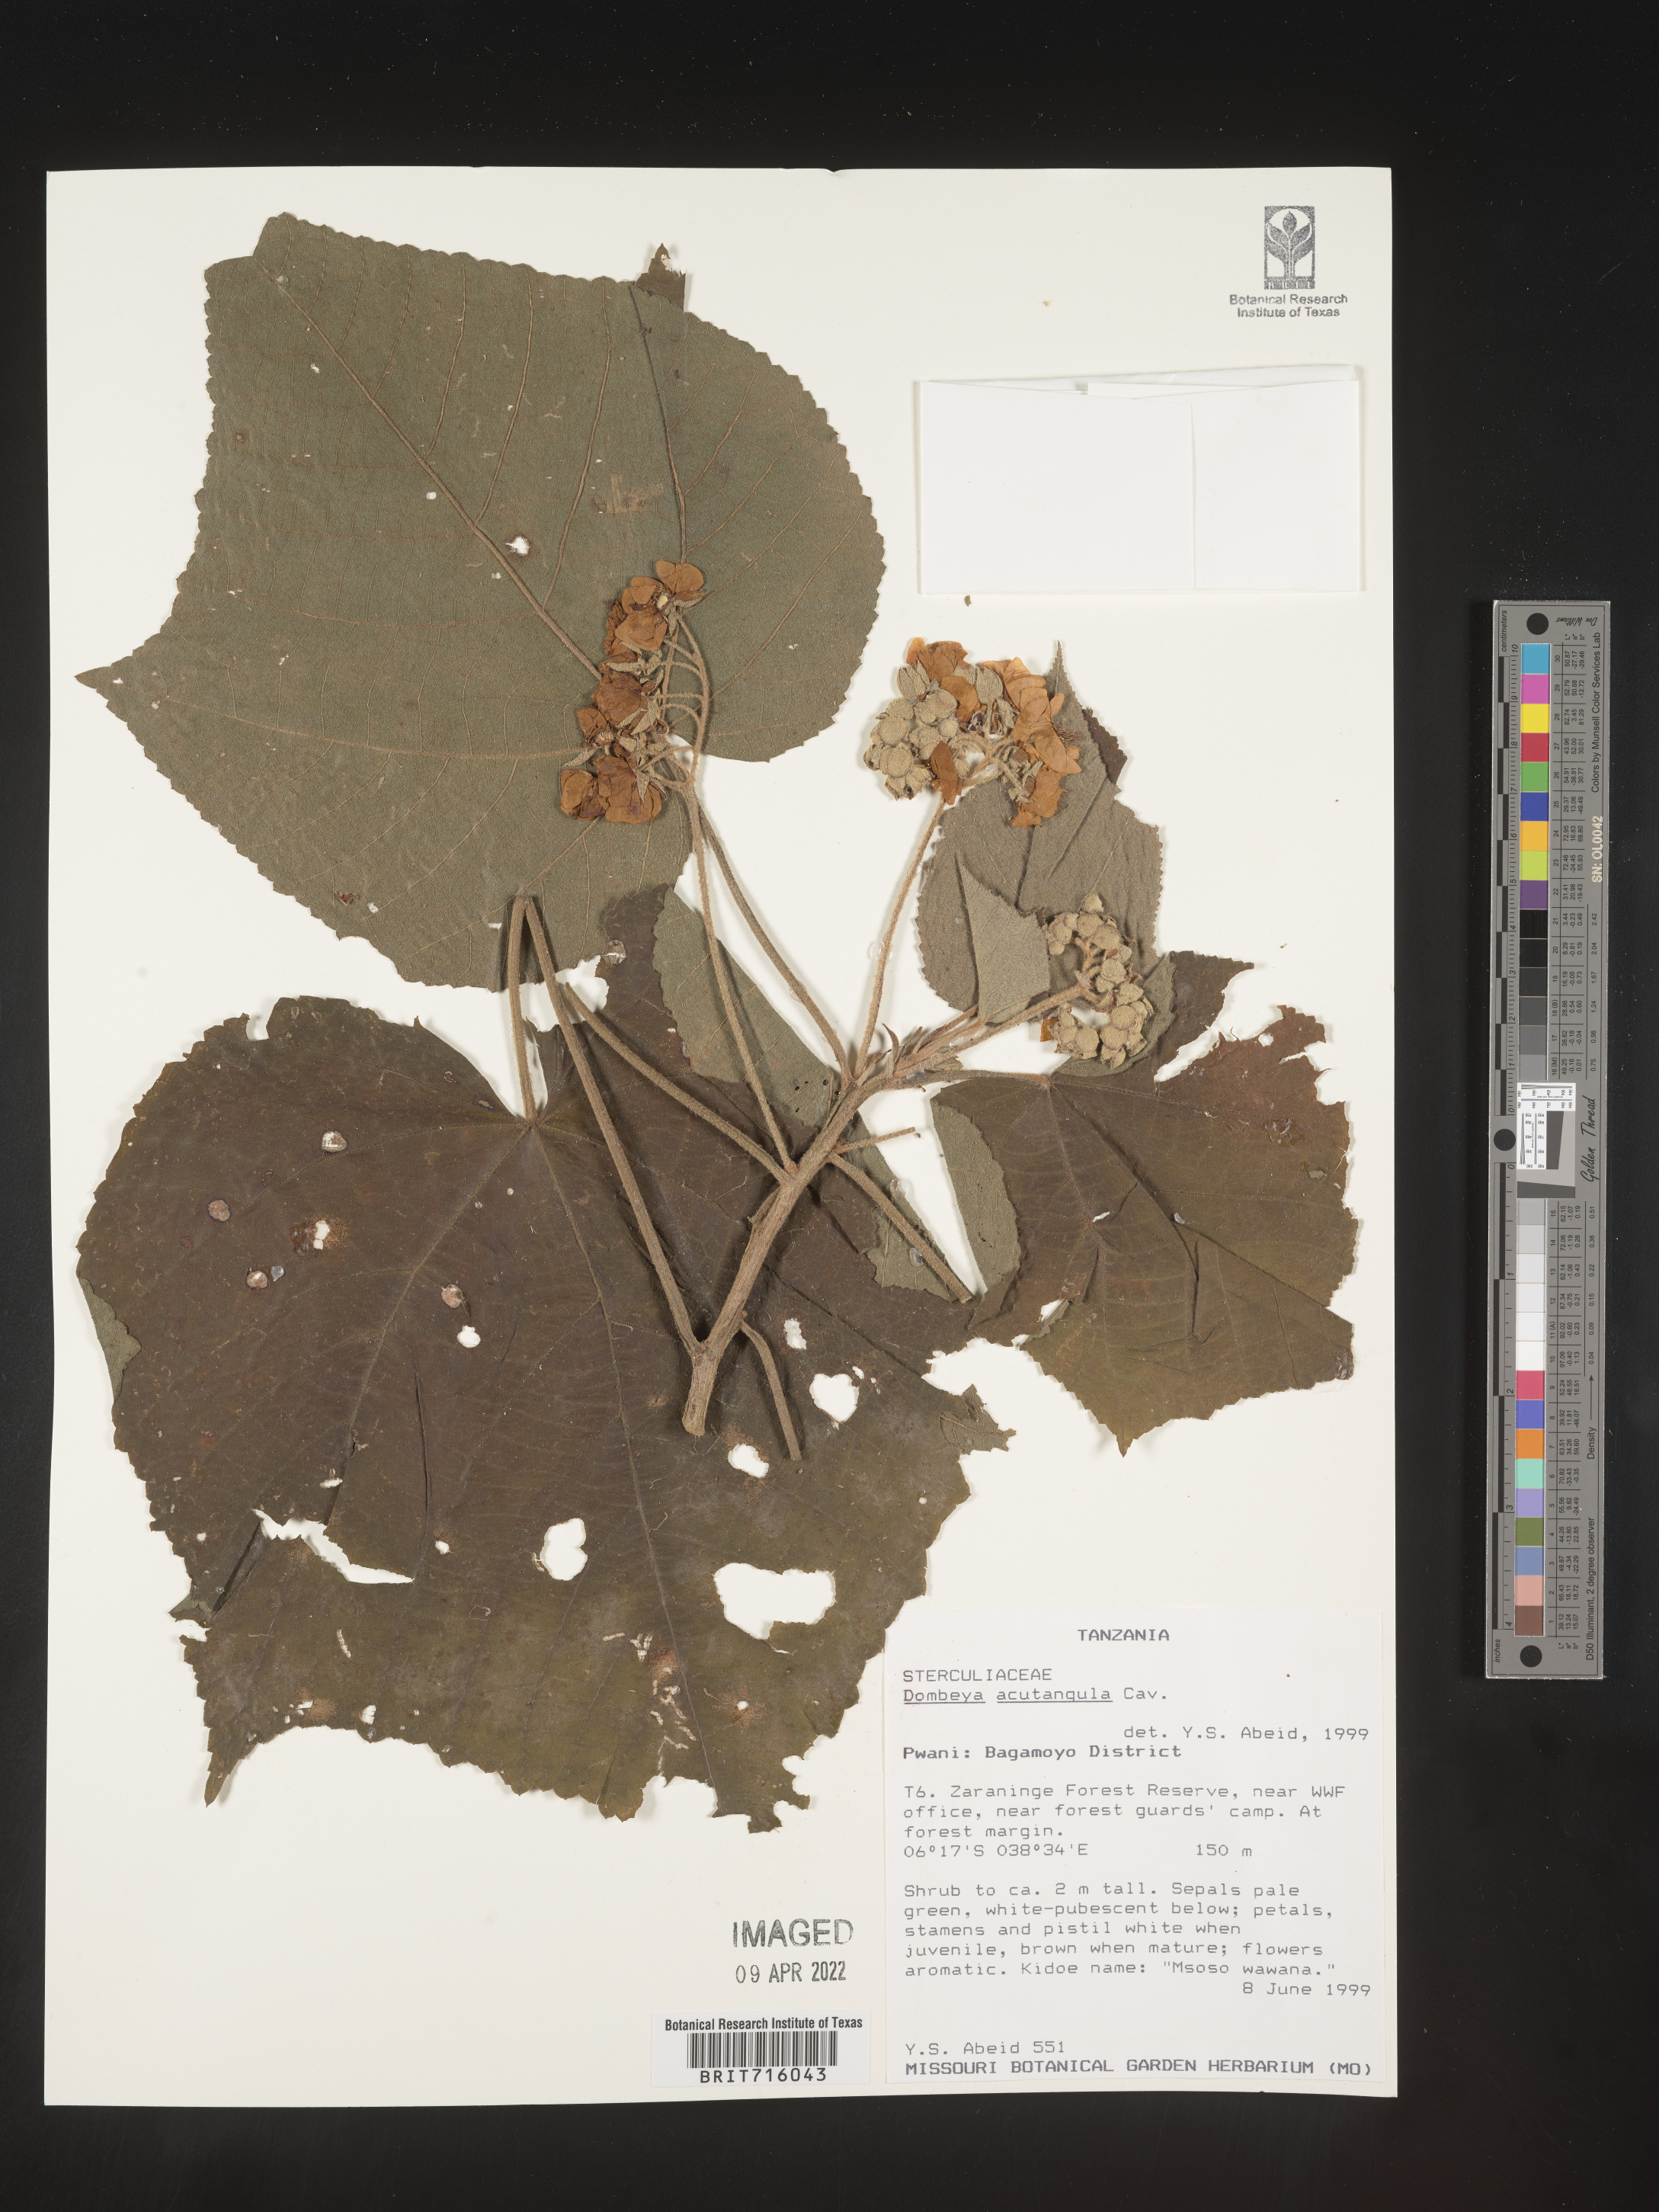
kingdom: Plantae
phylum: Tracheophyta
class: Magnoliopsida
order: Malvales
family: Malvaceae
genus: Dombeya
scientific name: Dombeya
